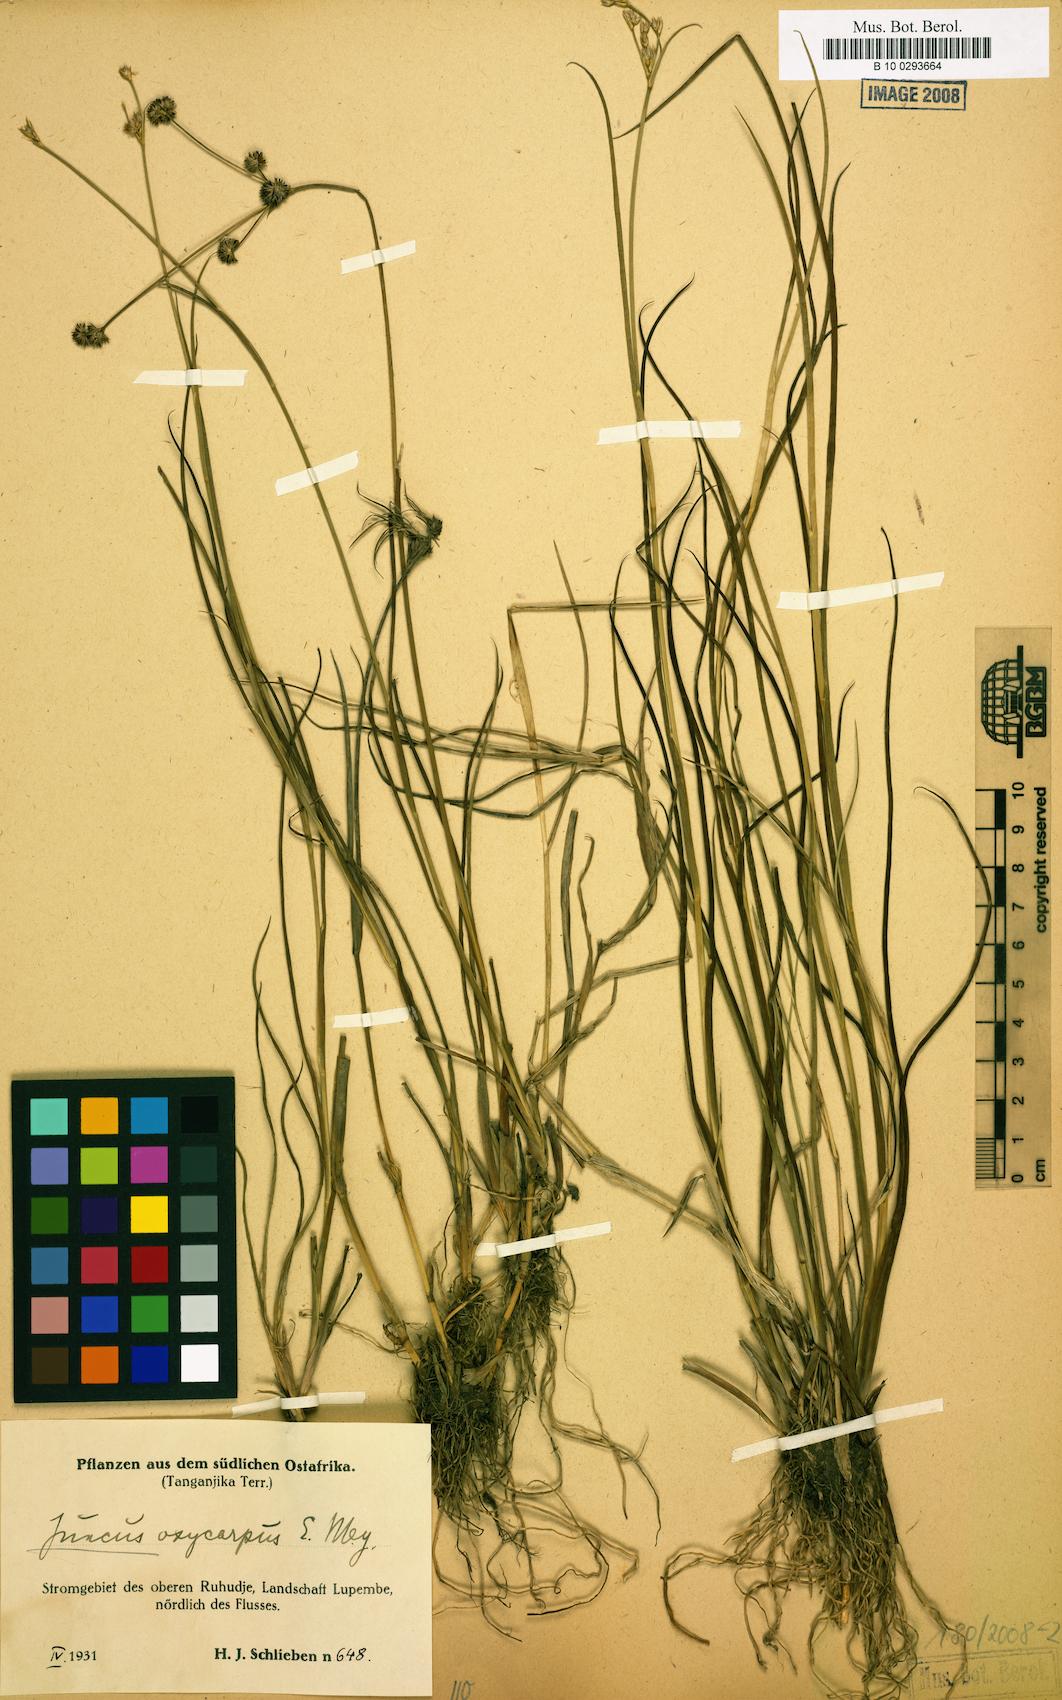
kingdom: Plantae
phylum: Tracheophyta
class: Liliopsida
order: Poales
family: Juncaceae
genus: Juncus
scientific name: Juncus oxycarpus
